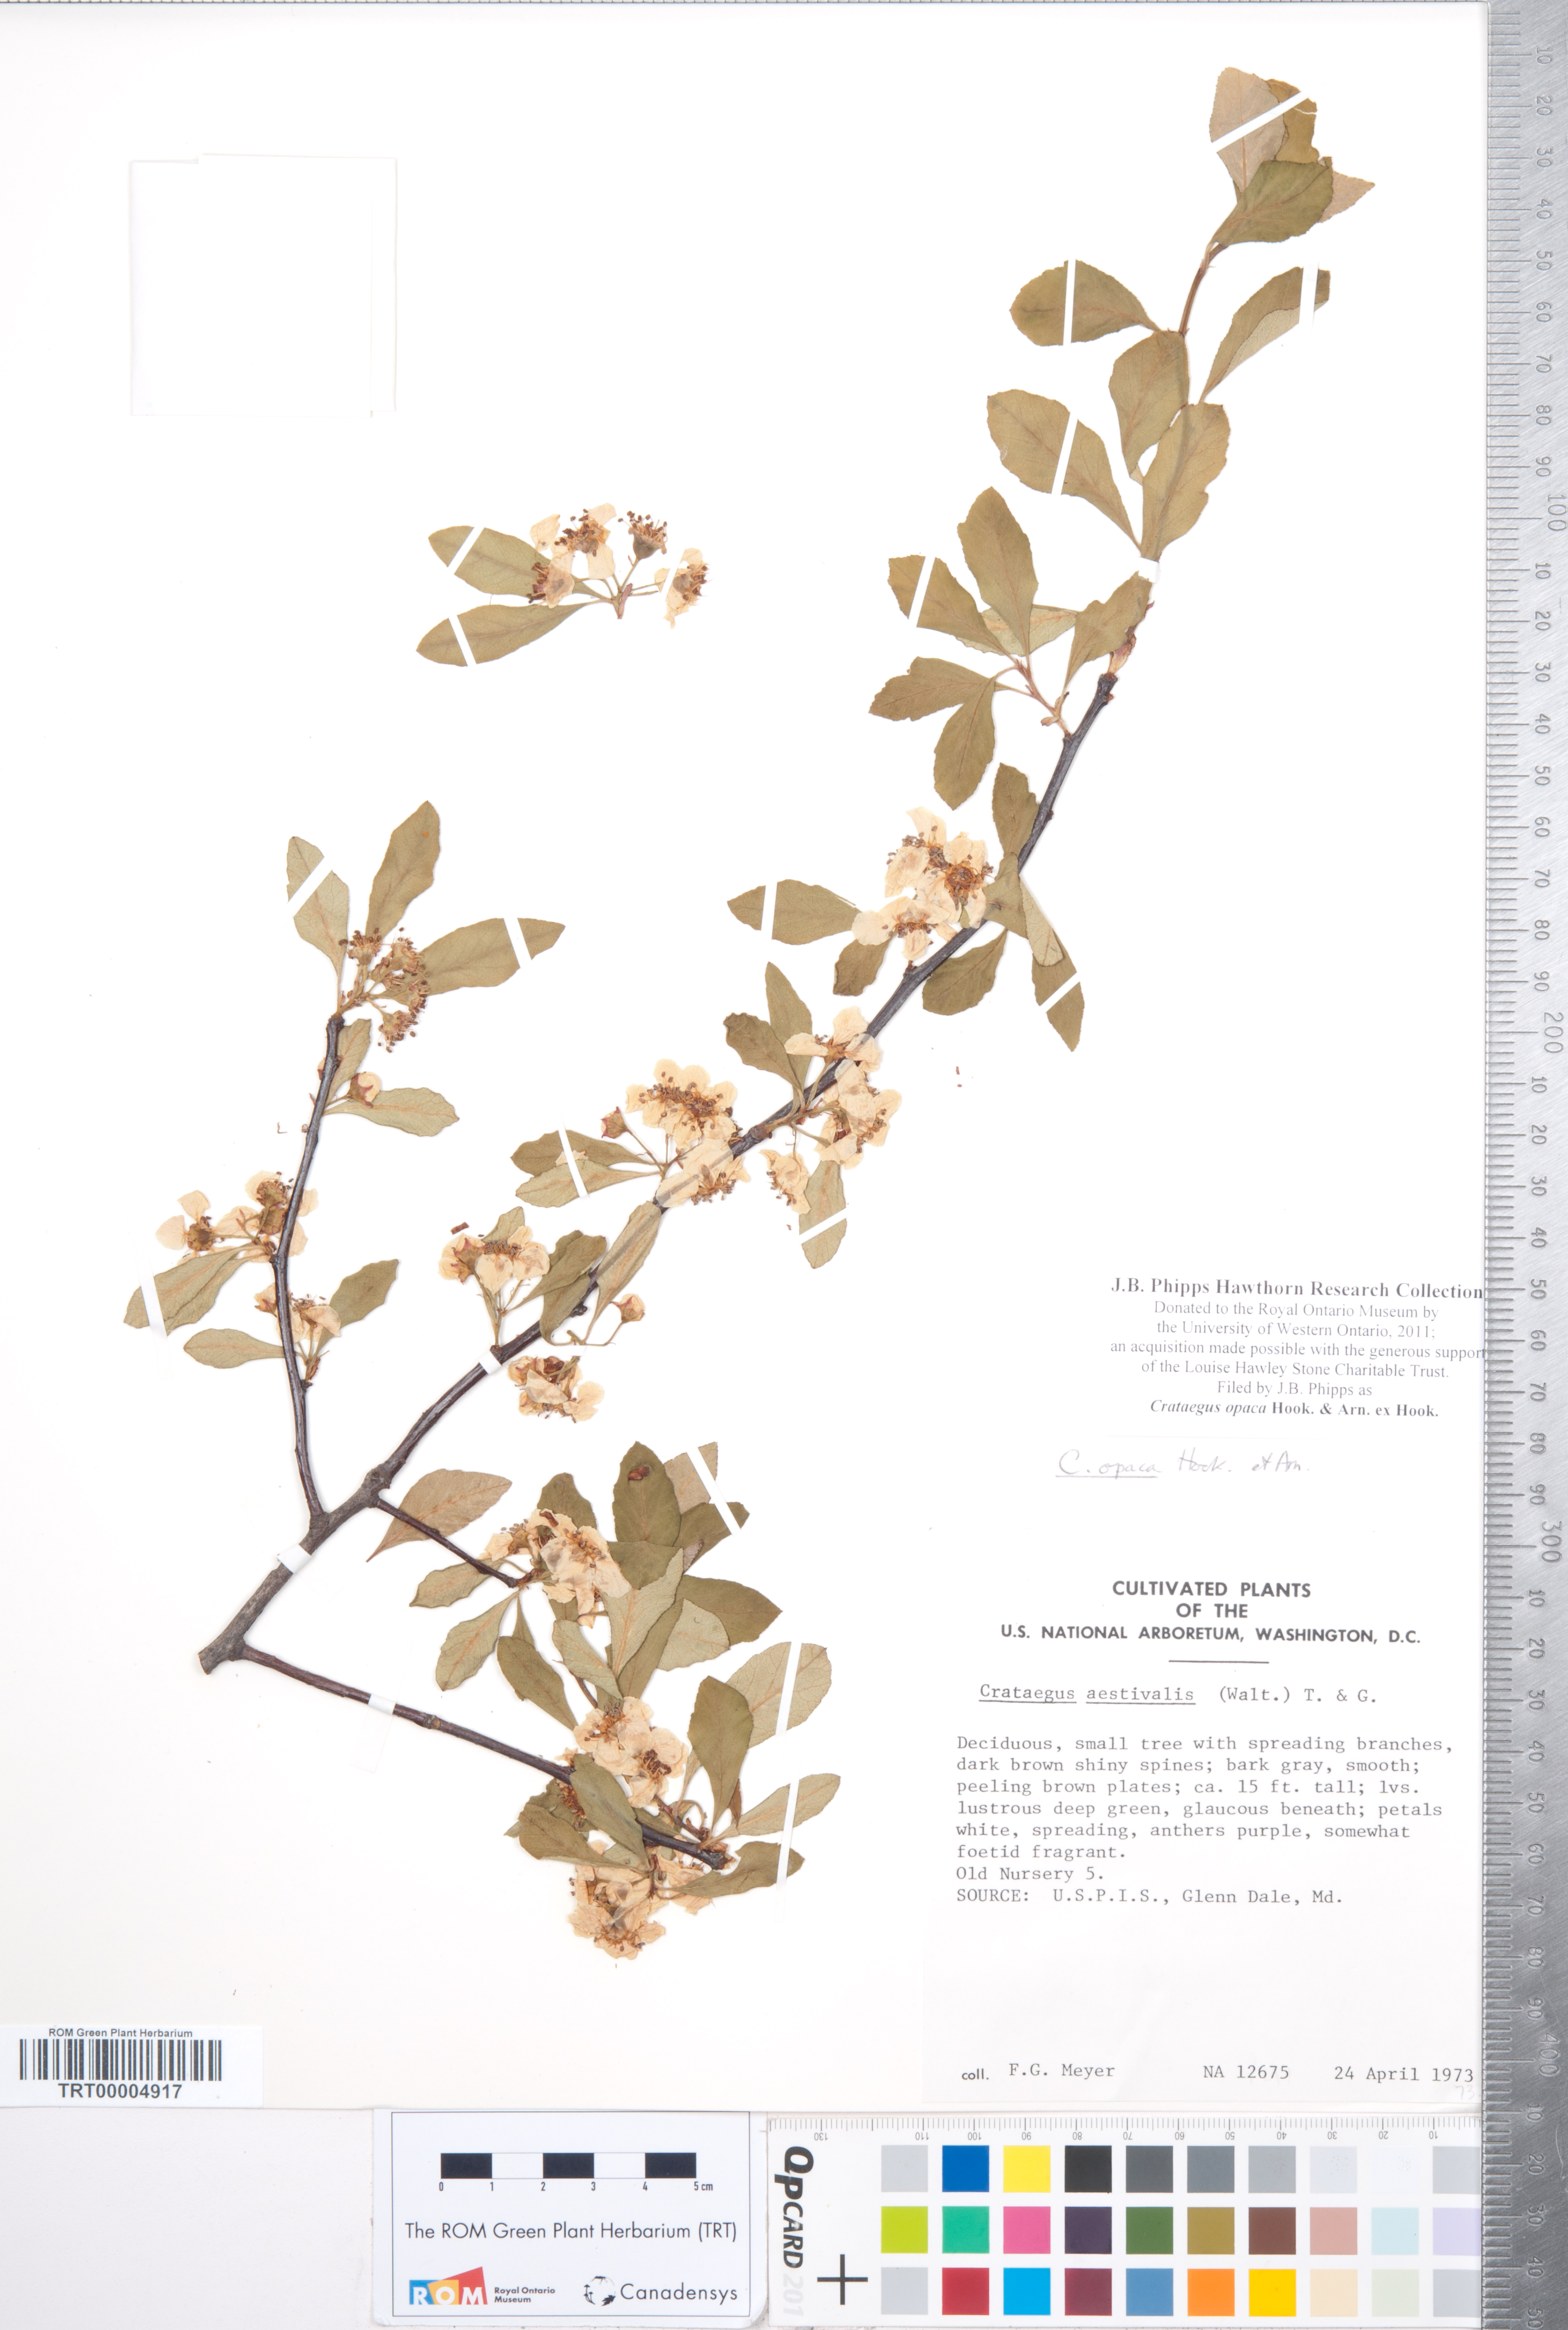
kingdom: Plantae
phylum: Tracheophyta
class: Magnoliopsida
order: Rosales
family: Rosaceae
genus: Crataegus
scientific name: Crataegus opaca
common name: Apple haw
